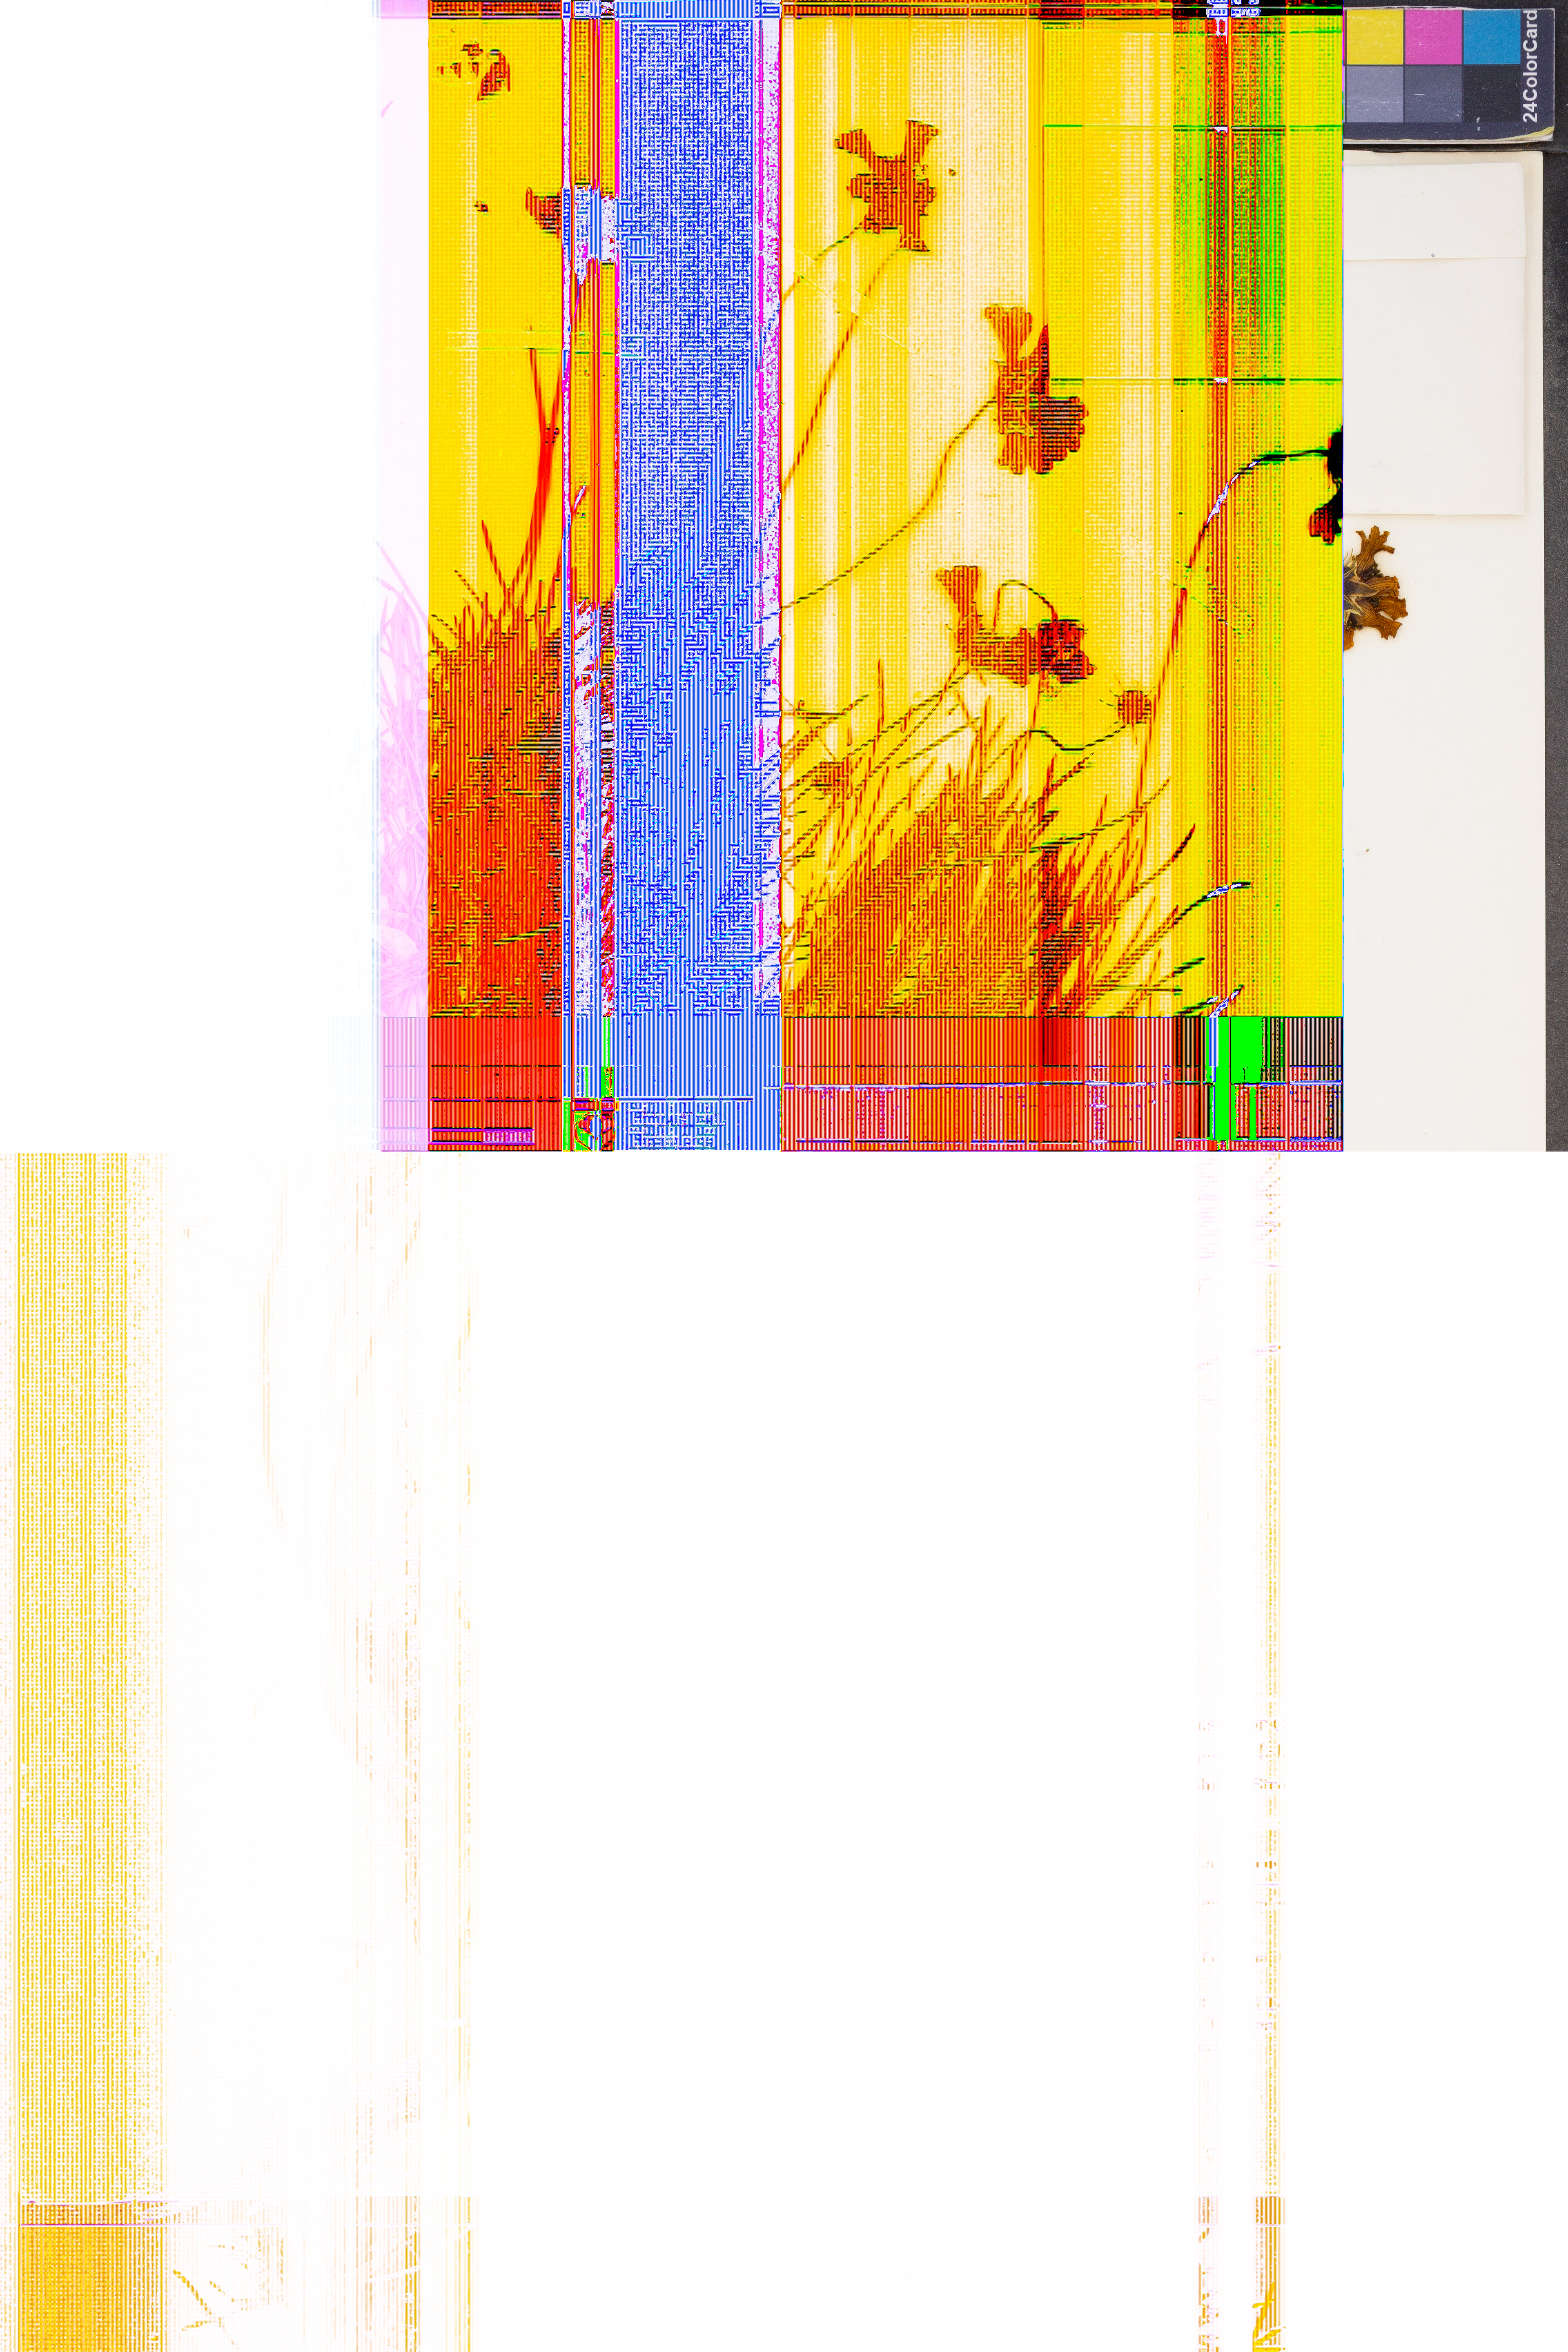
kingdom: Plantae
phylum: Tracheophyta
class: Magnoliopsida
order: Asterales
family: Asteraceae
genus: Thelesperma
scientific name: Thelesperma filifolium
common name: Stiff greenthread
